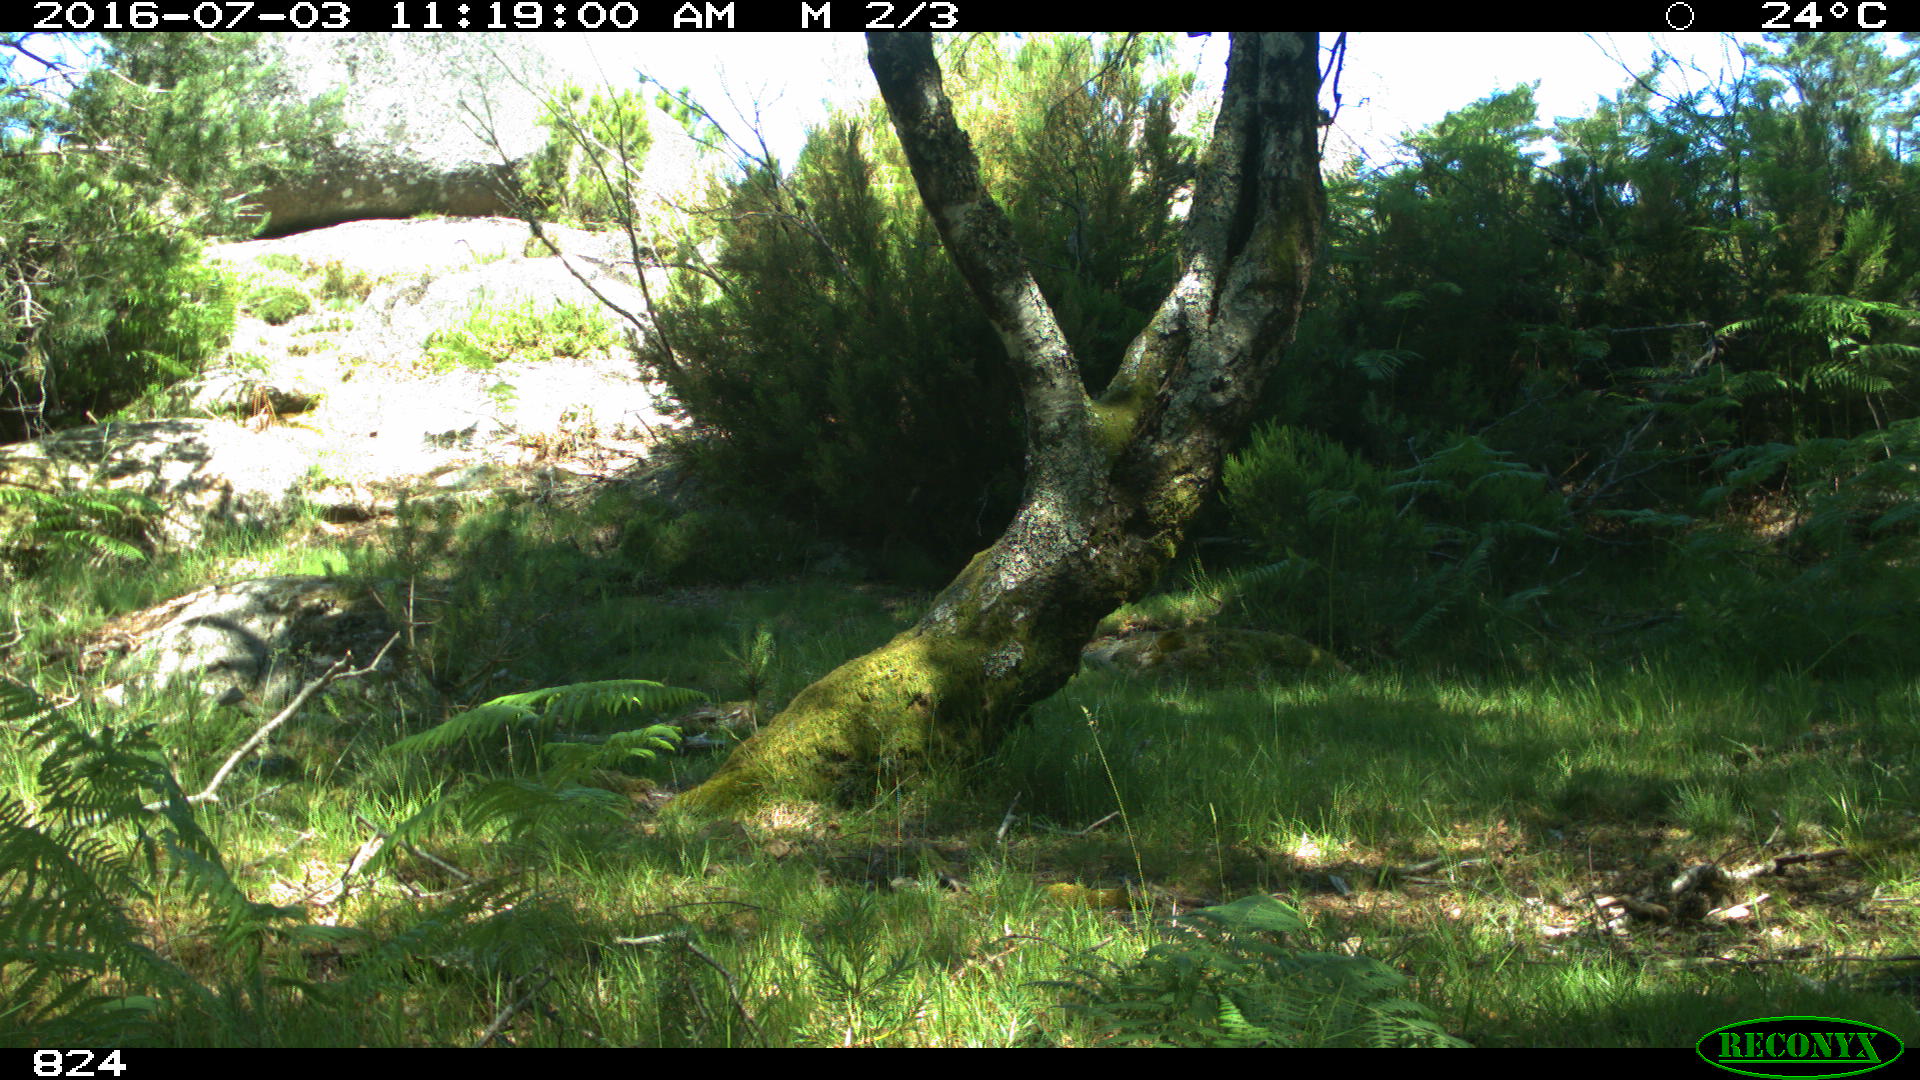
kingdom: Animalia
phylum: Chordata
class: Mammalia
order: Artiodactyla
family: Bovidae
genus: Bos
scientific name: Bos taurus
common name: Domesticated cattle
